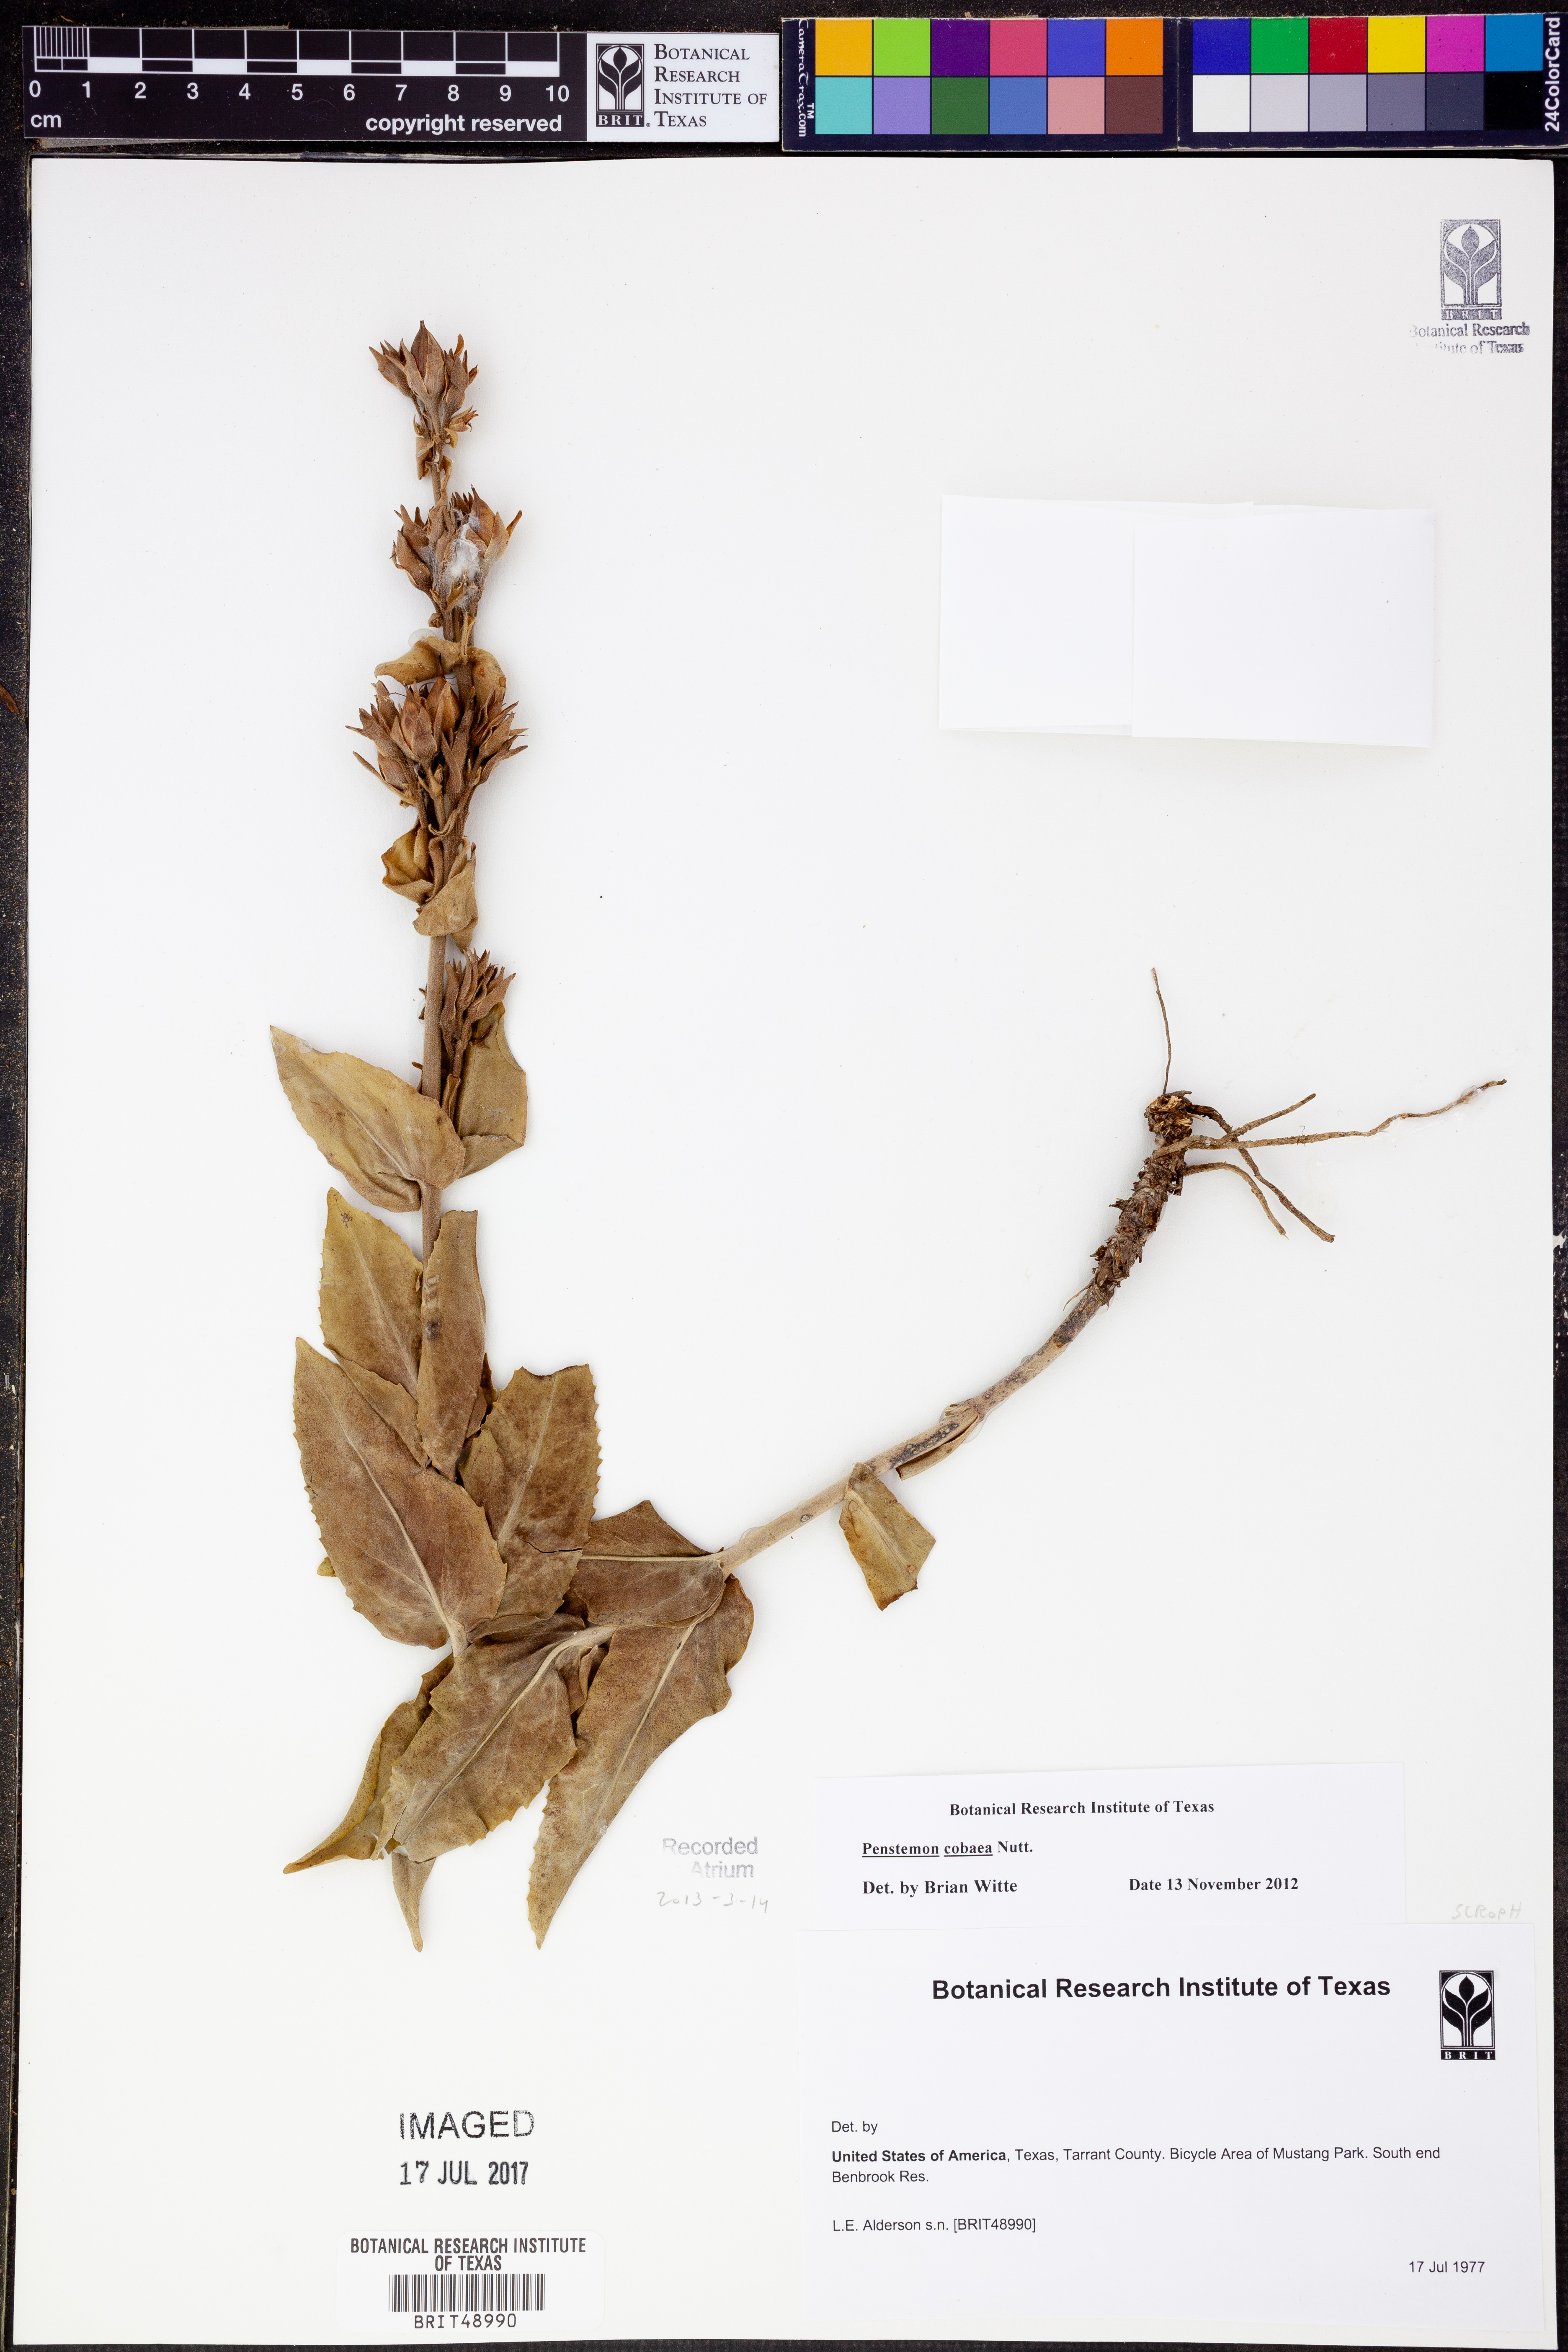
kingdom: Plantae
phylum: Tracheophyta
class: Magnoliopsida
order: Lamiales
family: Plantaginaceae
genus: Penstemon
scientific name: Penstemon cobaea
